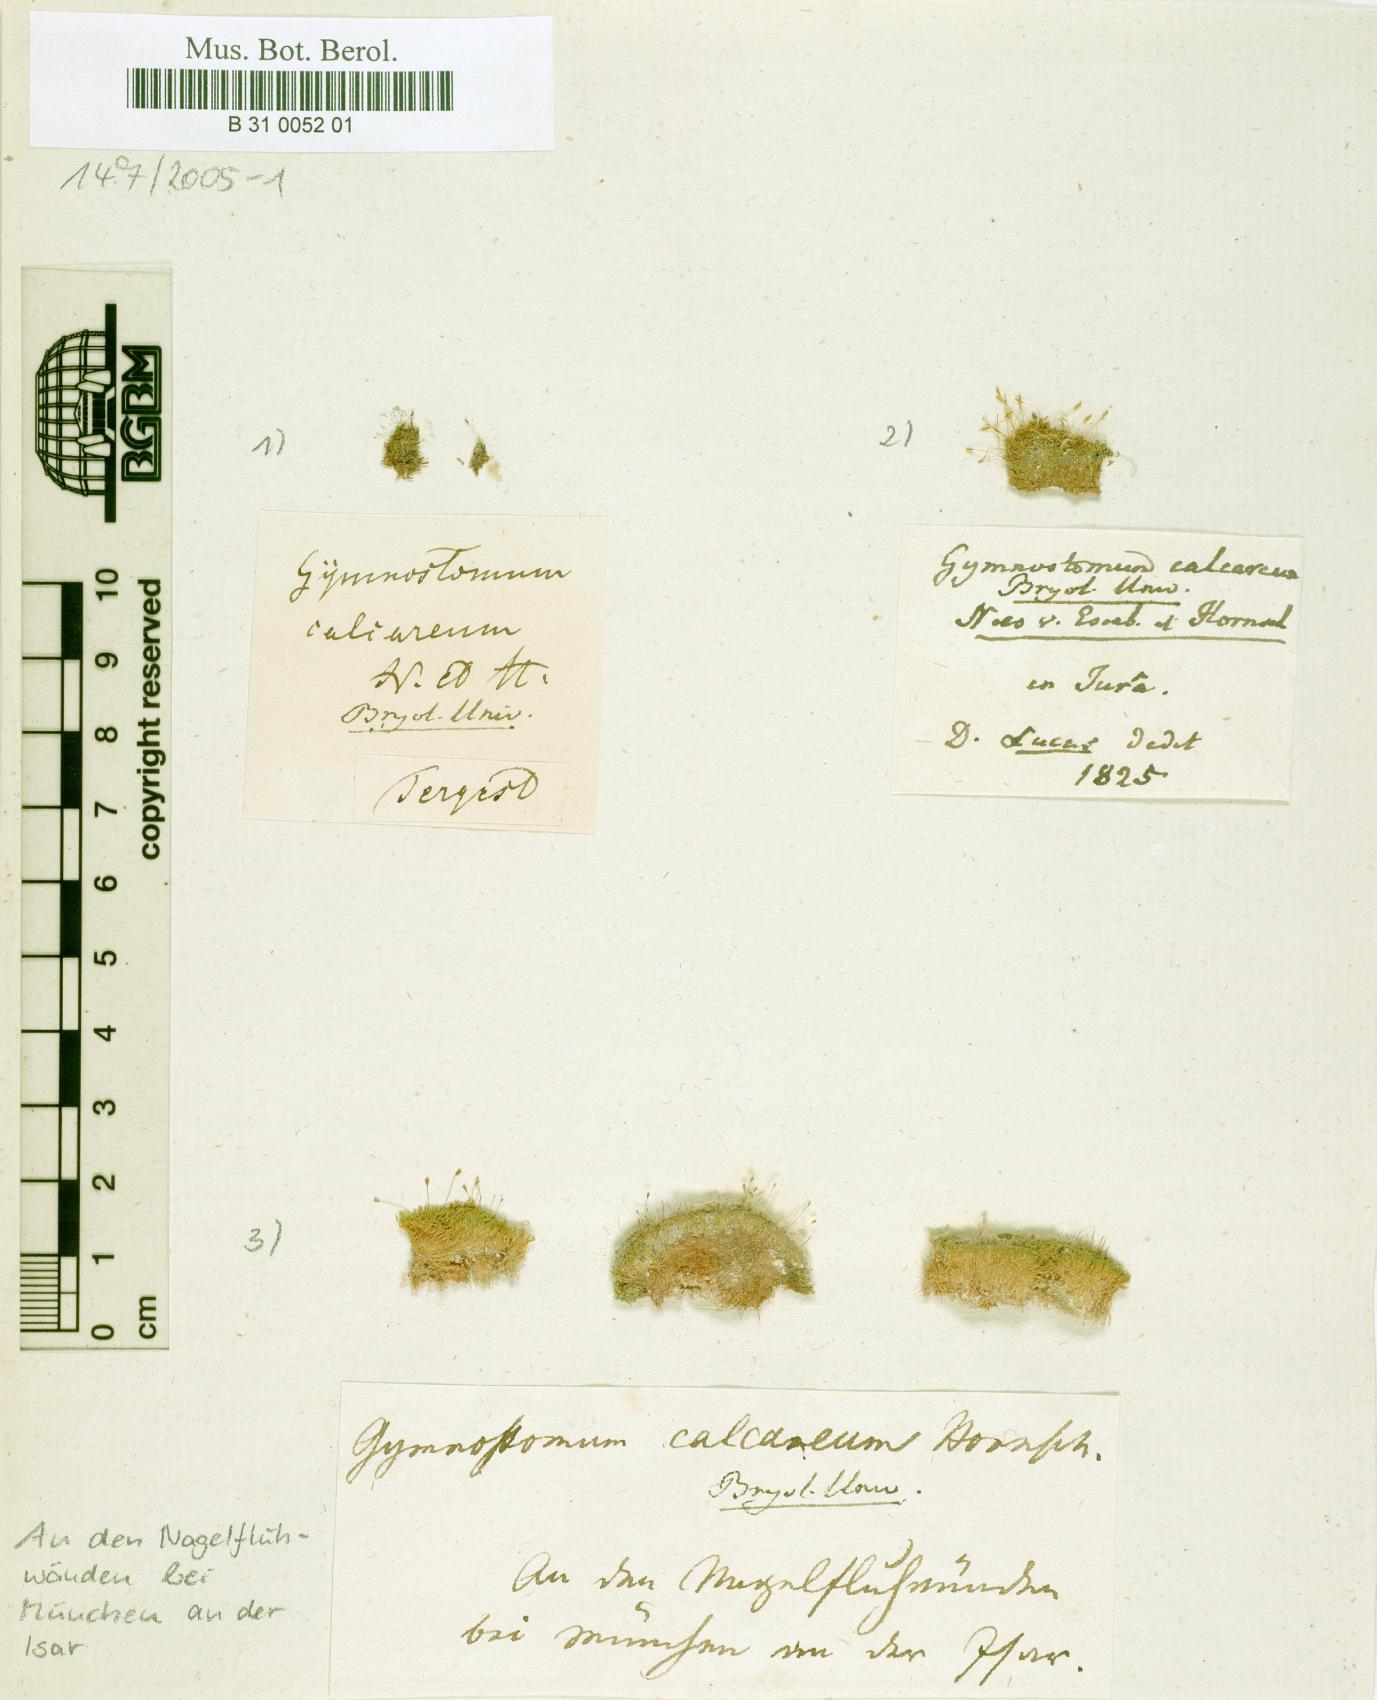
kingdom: Plantae
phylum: Bryophyta
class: Bryopsida
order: Pottiales
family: Pottiaceae
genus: Gymnostomum
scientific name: Gymnostomum calcareum
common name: Blunt-leaf tufa-moss
